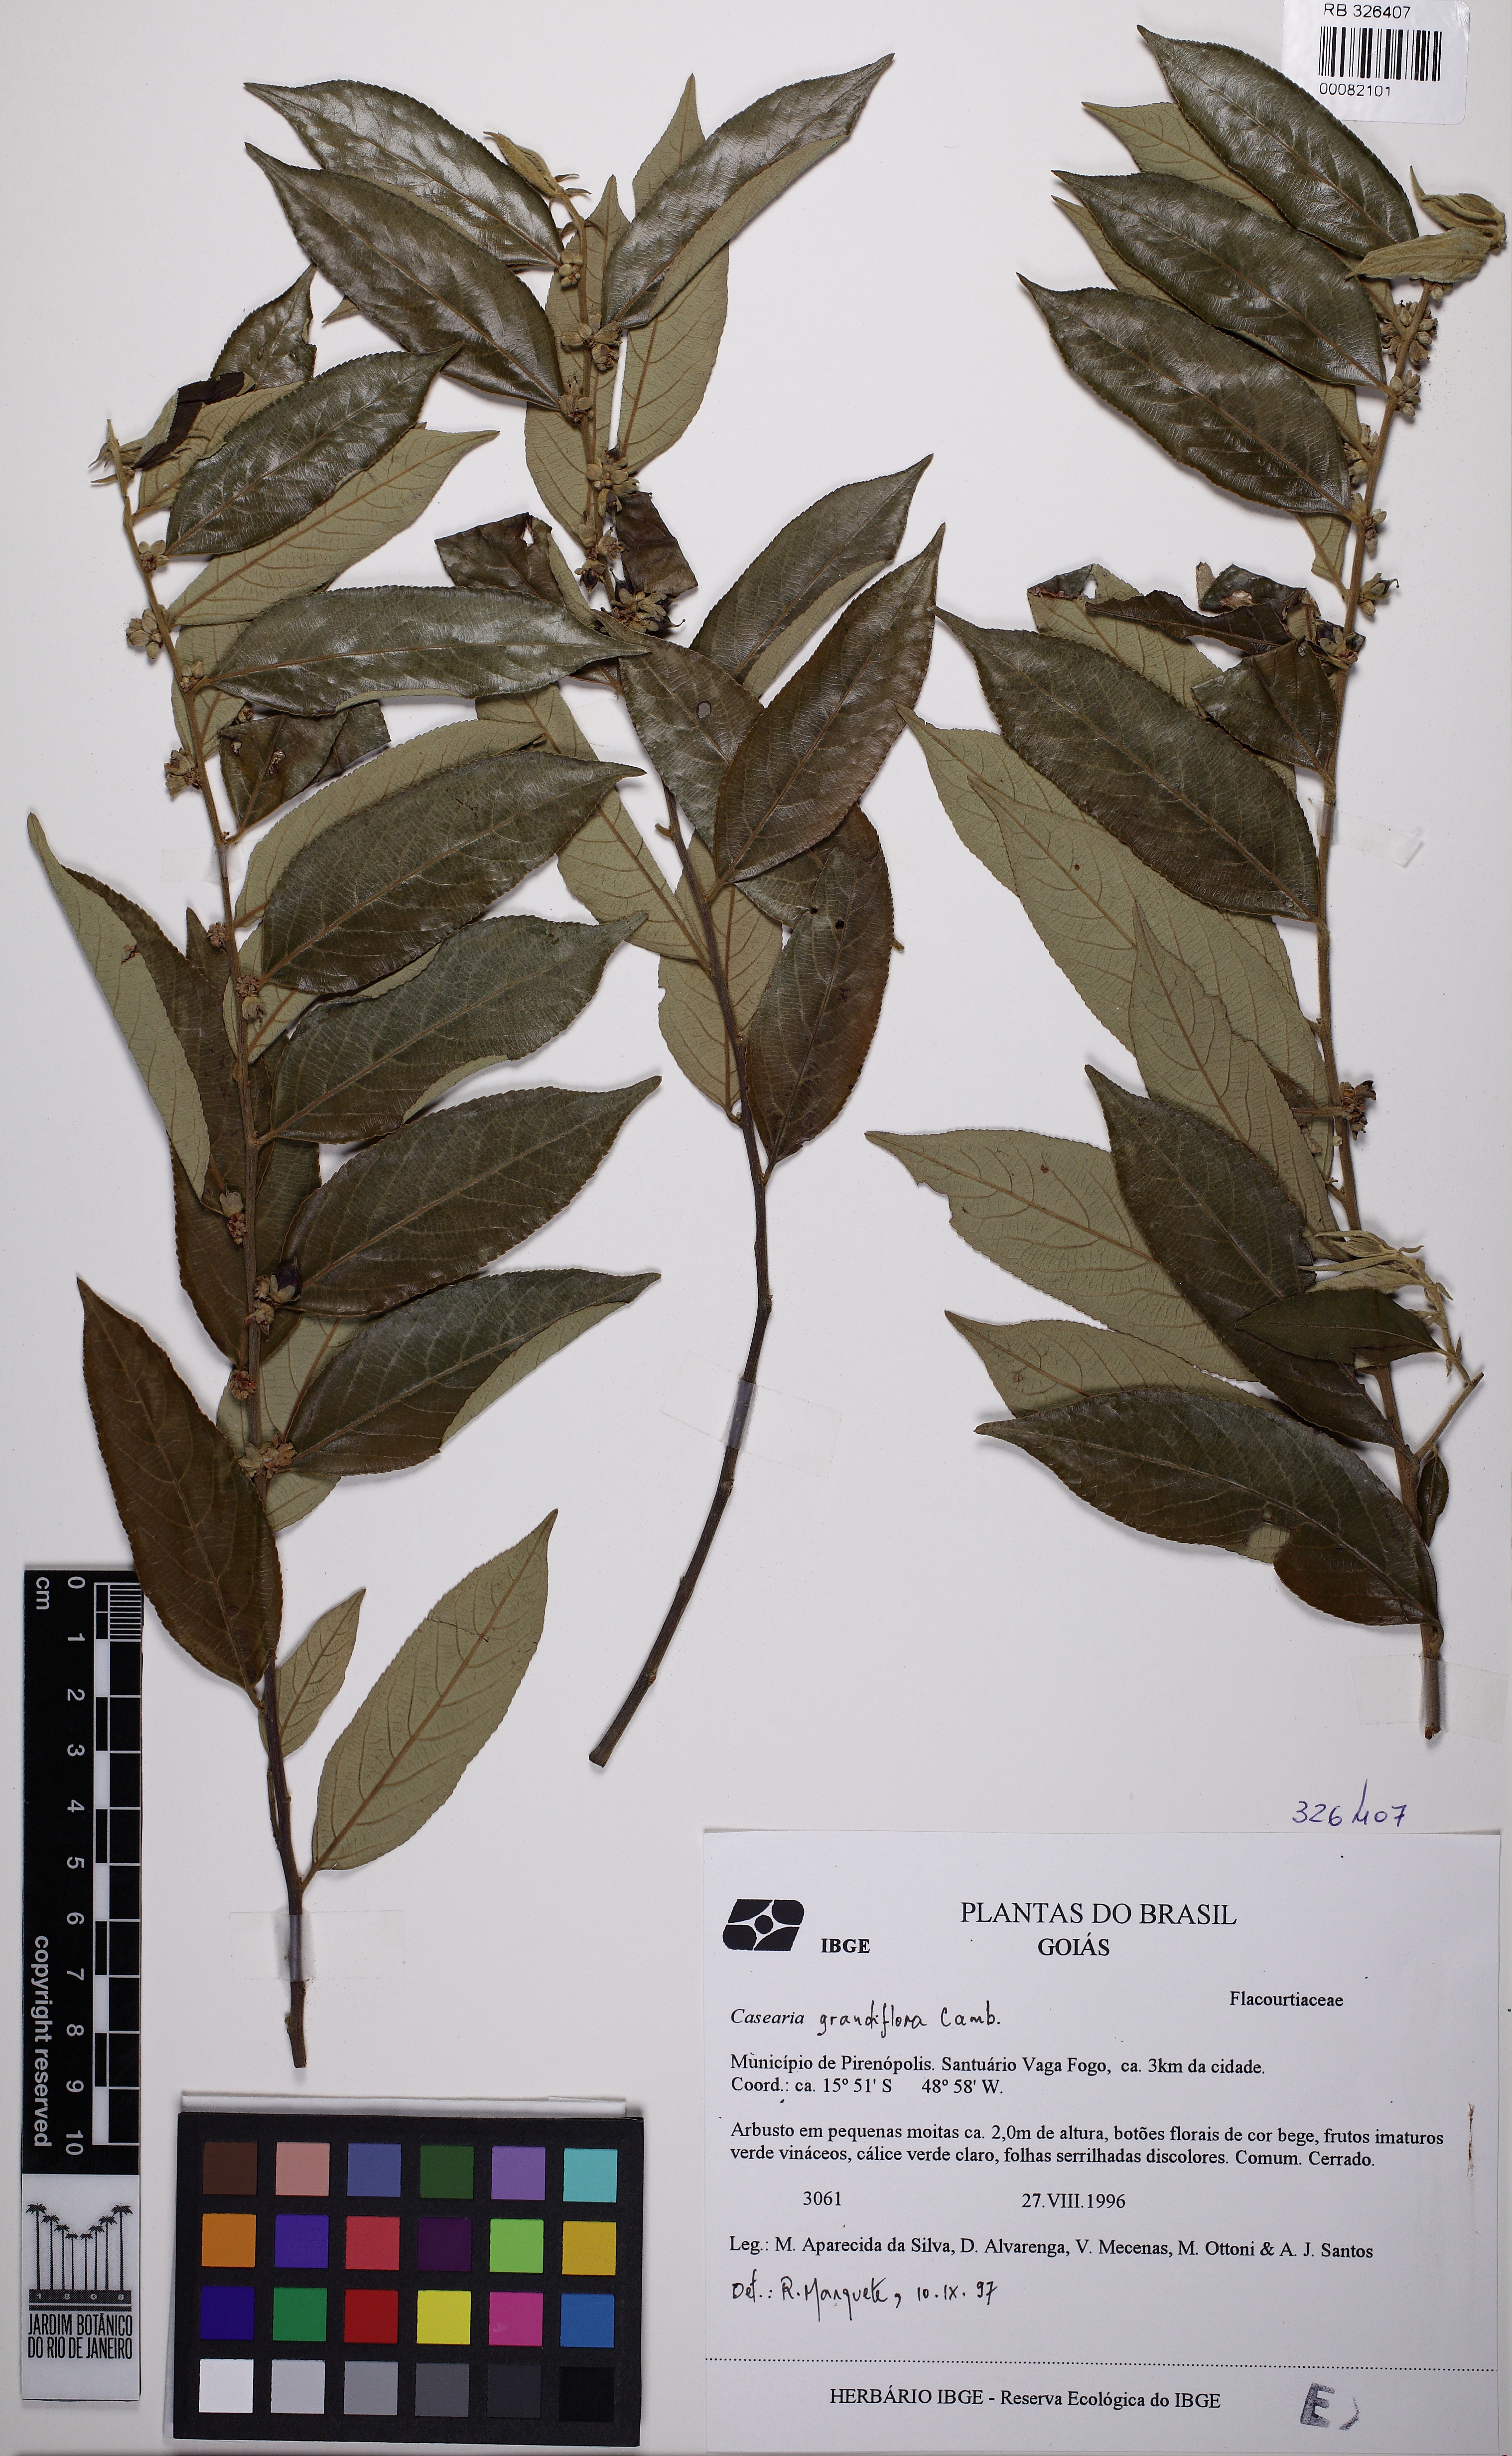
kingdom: Plantae
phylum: Tracheophyta
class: Magnoliopsida
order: Malpighiales
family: Salicaceae
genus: Casearia
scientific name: Casearia grandiflora
